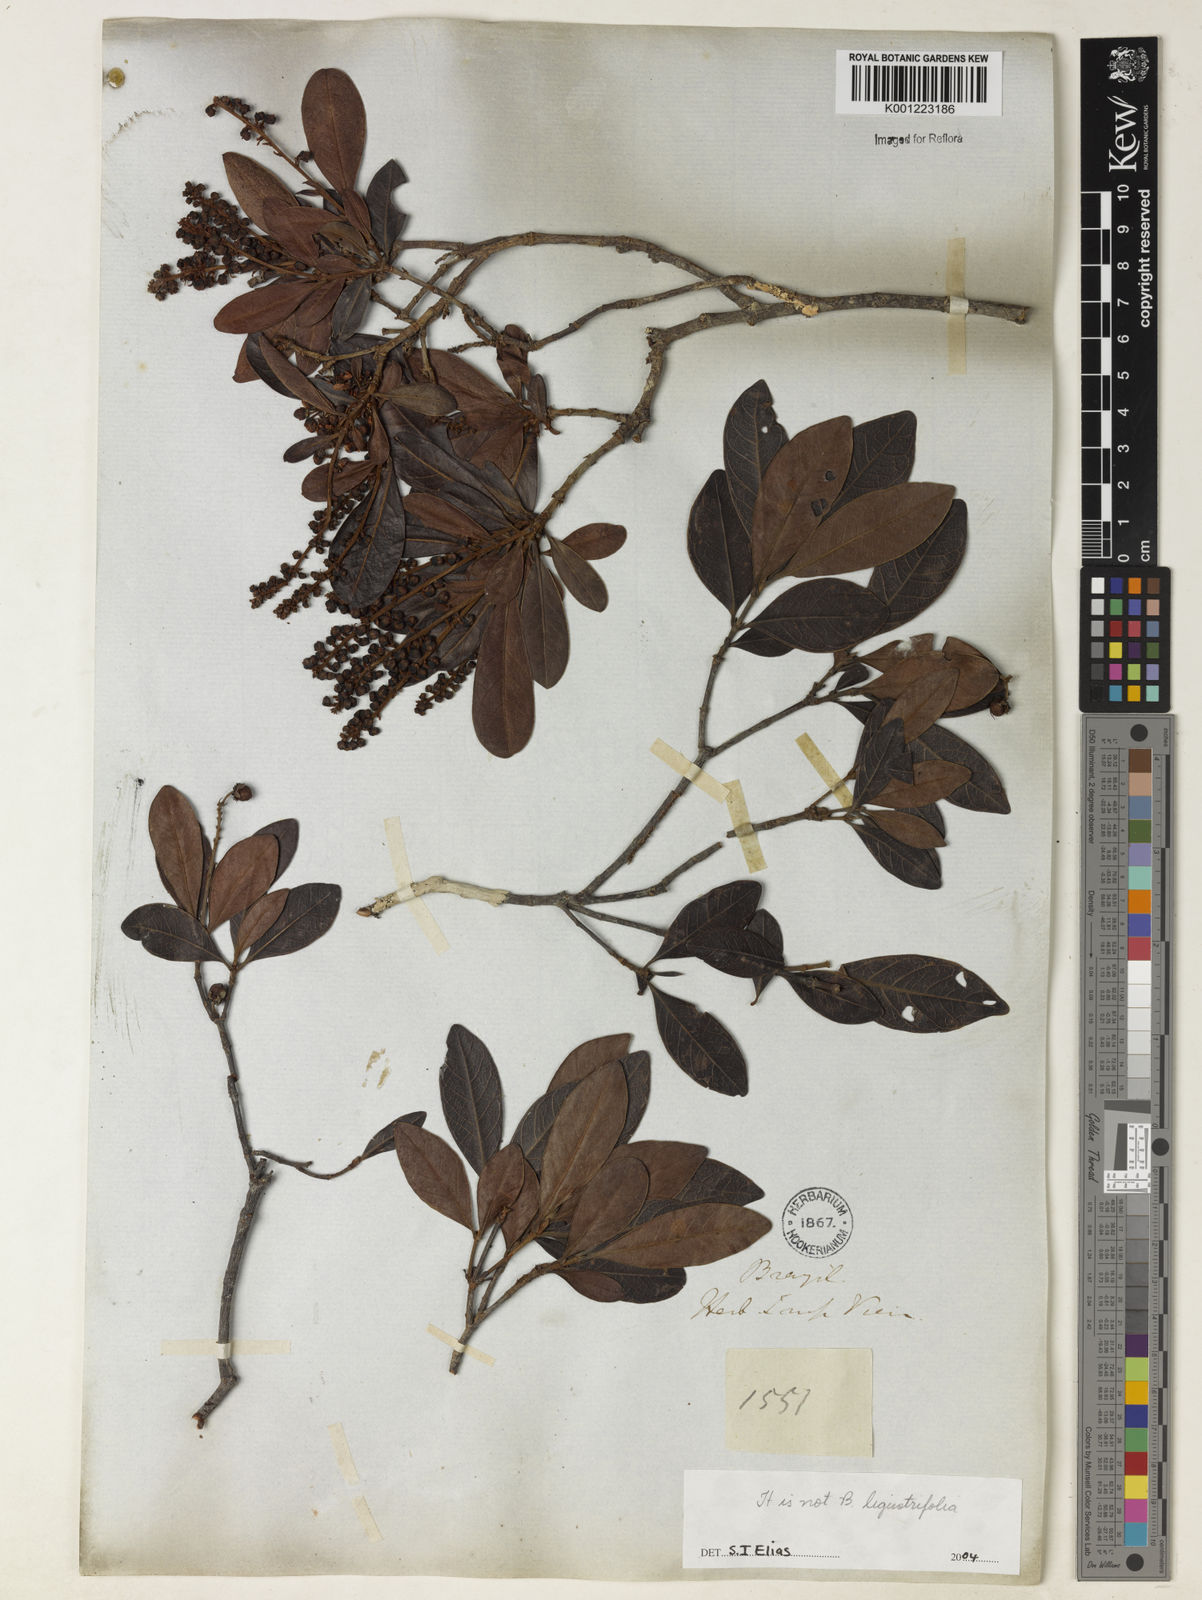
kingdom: Plantae
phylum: Tracheophyta
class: Magnoliopsida
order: Malpighiales
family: Malpighiaceae
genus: Byrsonima
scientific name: Byrsonima
